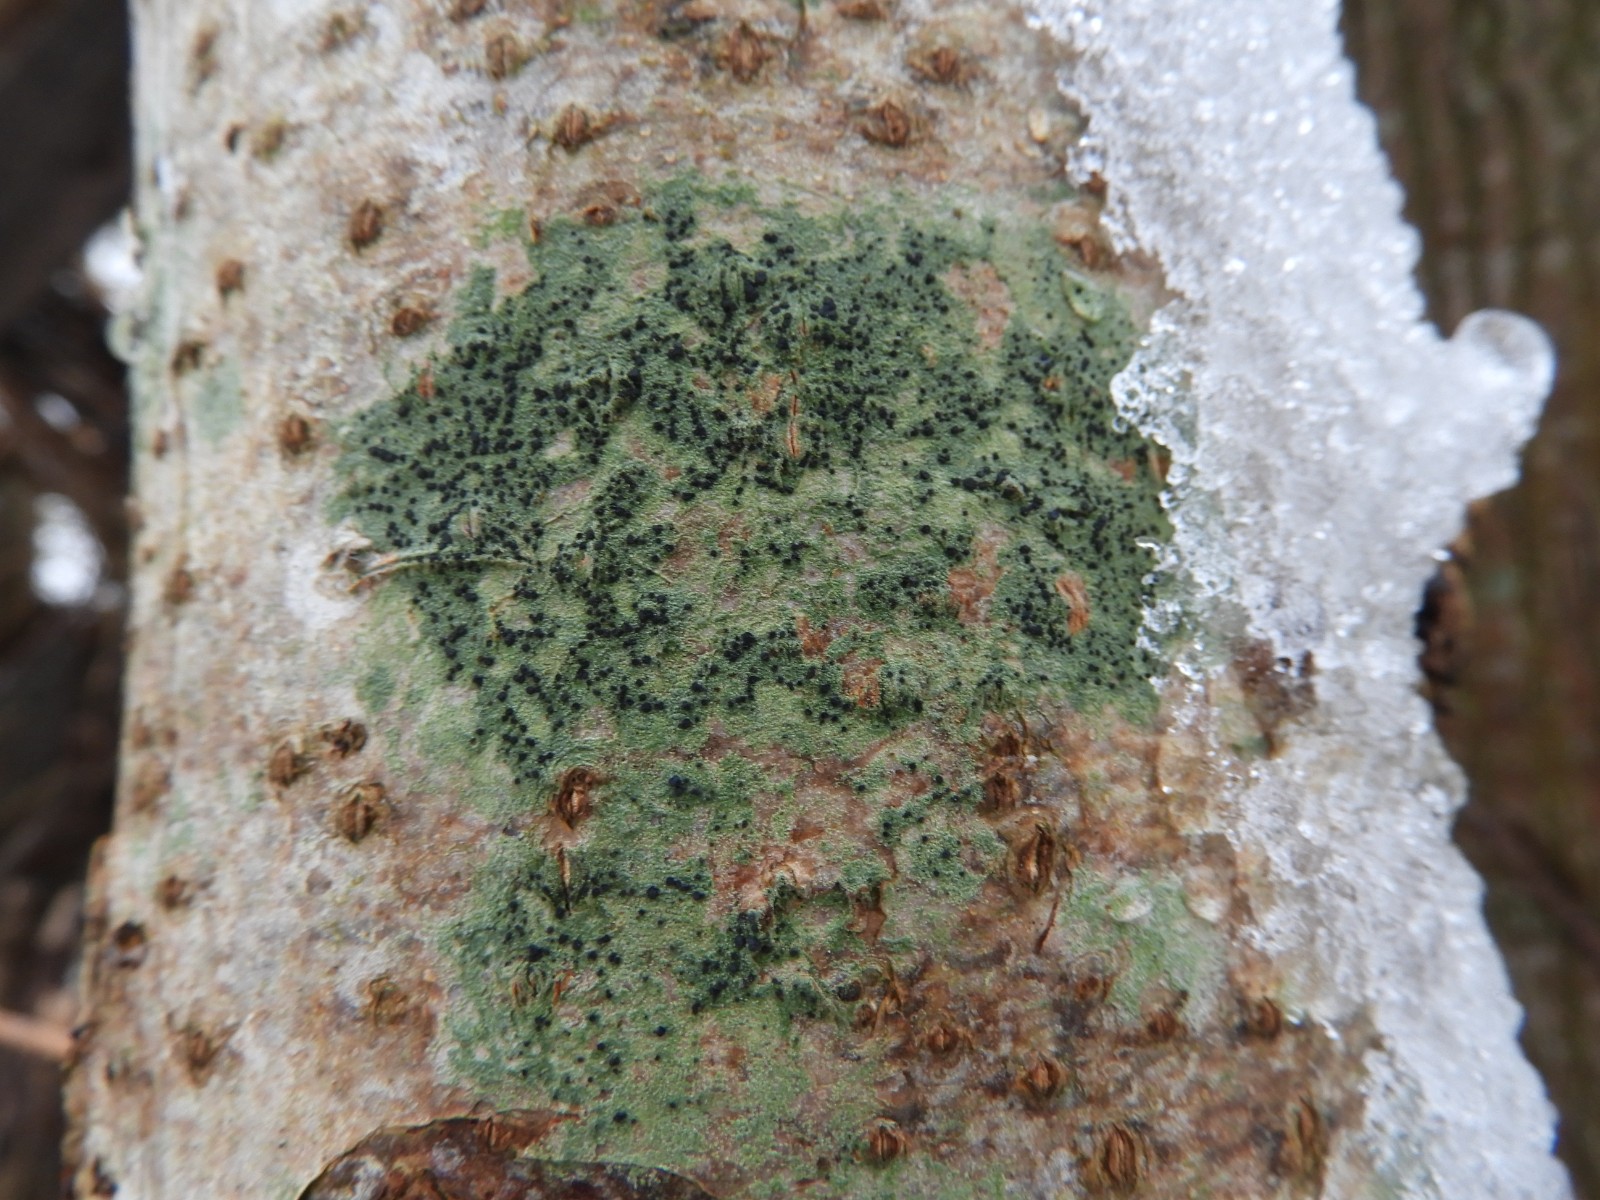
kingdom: Fungi
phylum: Ascomycota
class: Lecanoromycetes
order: Lecanorales
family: Lecanoraceae
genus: Lecidella
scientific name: Lecidella elaeochroma
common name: grågrøn skivelav
